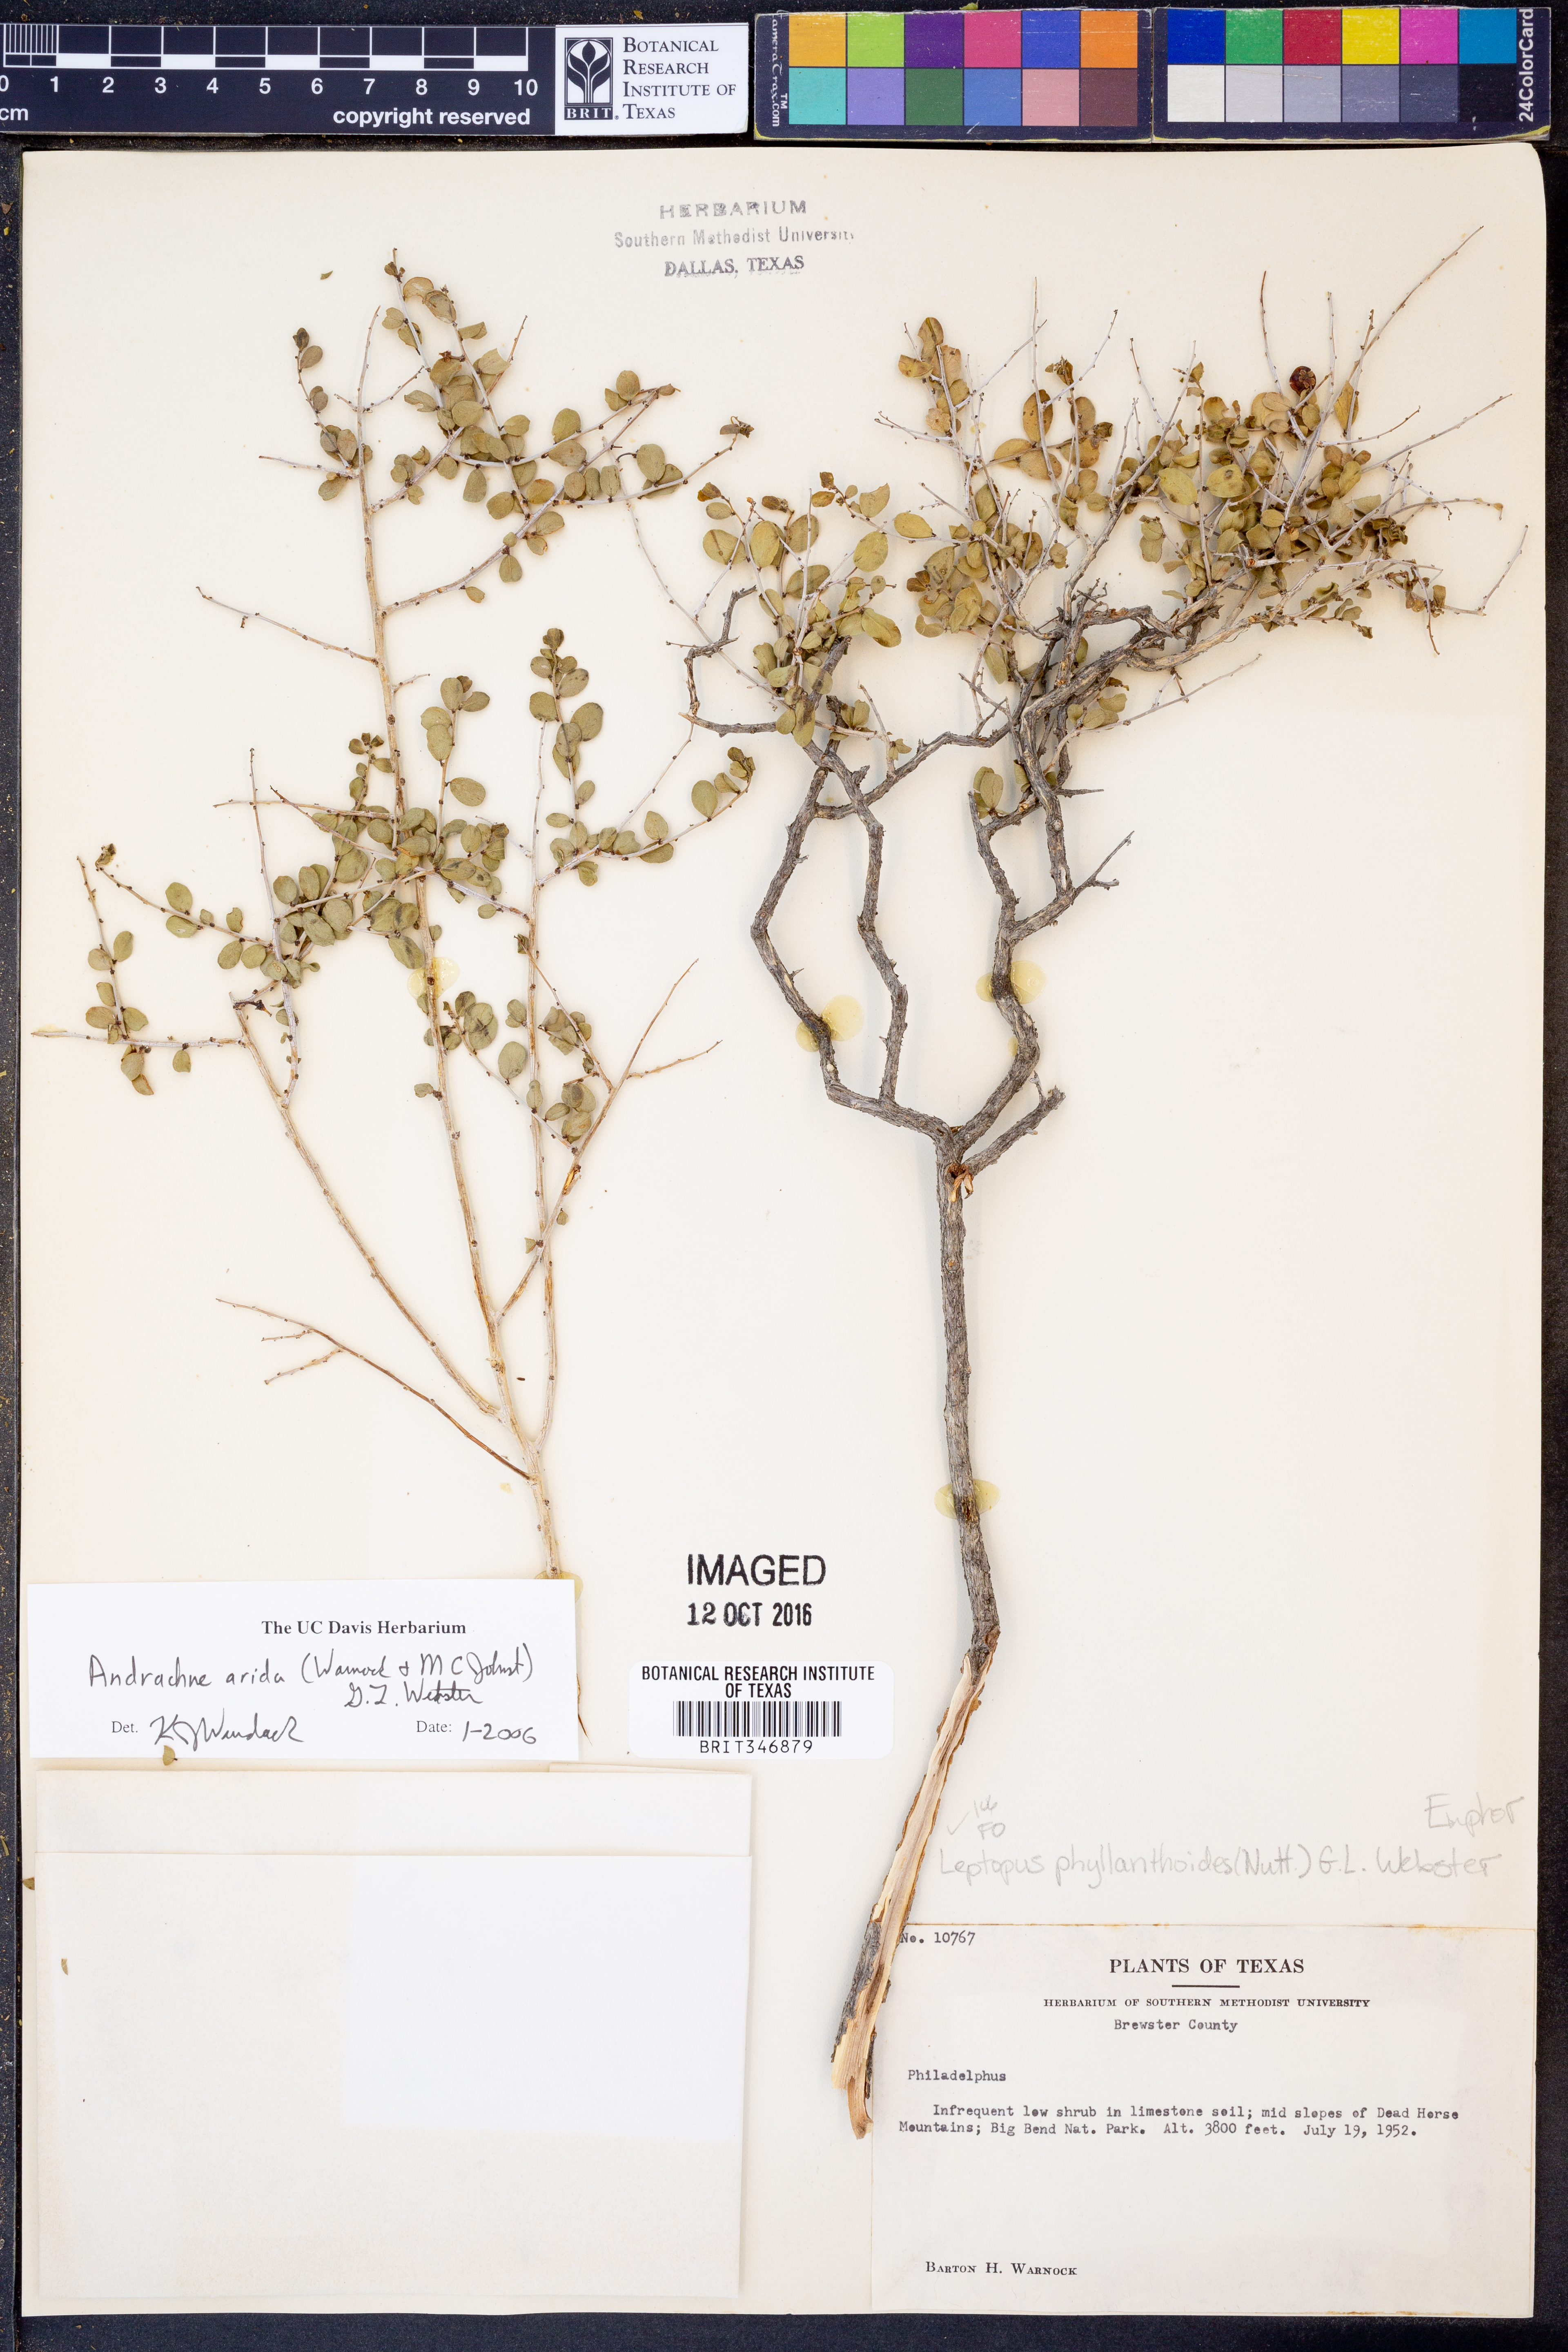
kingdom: Plantae
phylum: Tracheophyta
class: Magnoliopsida
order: Malpighiales
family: Phyllanthaceae
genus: Phyllanthopsis
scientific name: Phyllanthopsis arida
